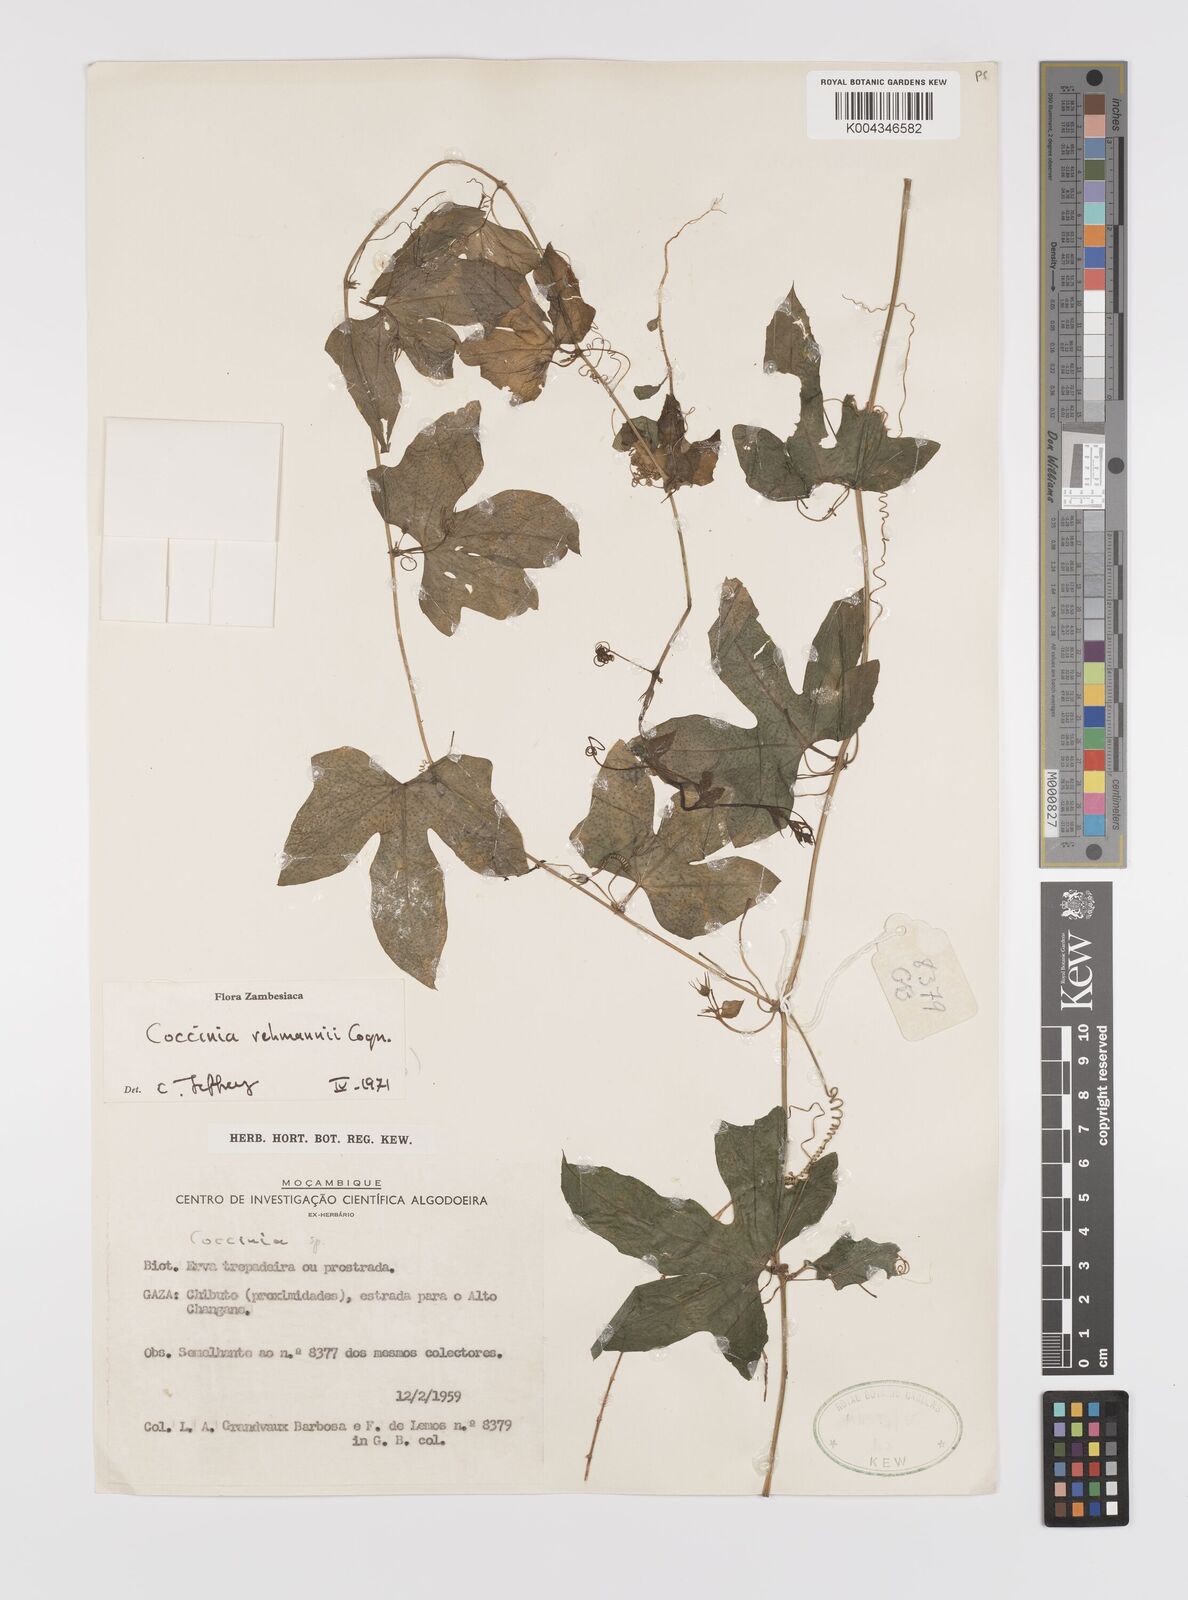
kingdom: Plantae
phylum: Tracheophyta
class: Magnoliopsida
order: Cucurbitales
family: Cucurbitaceae
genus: Coccinia
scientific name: Coccinia rehmannii
